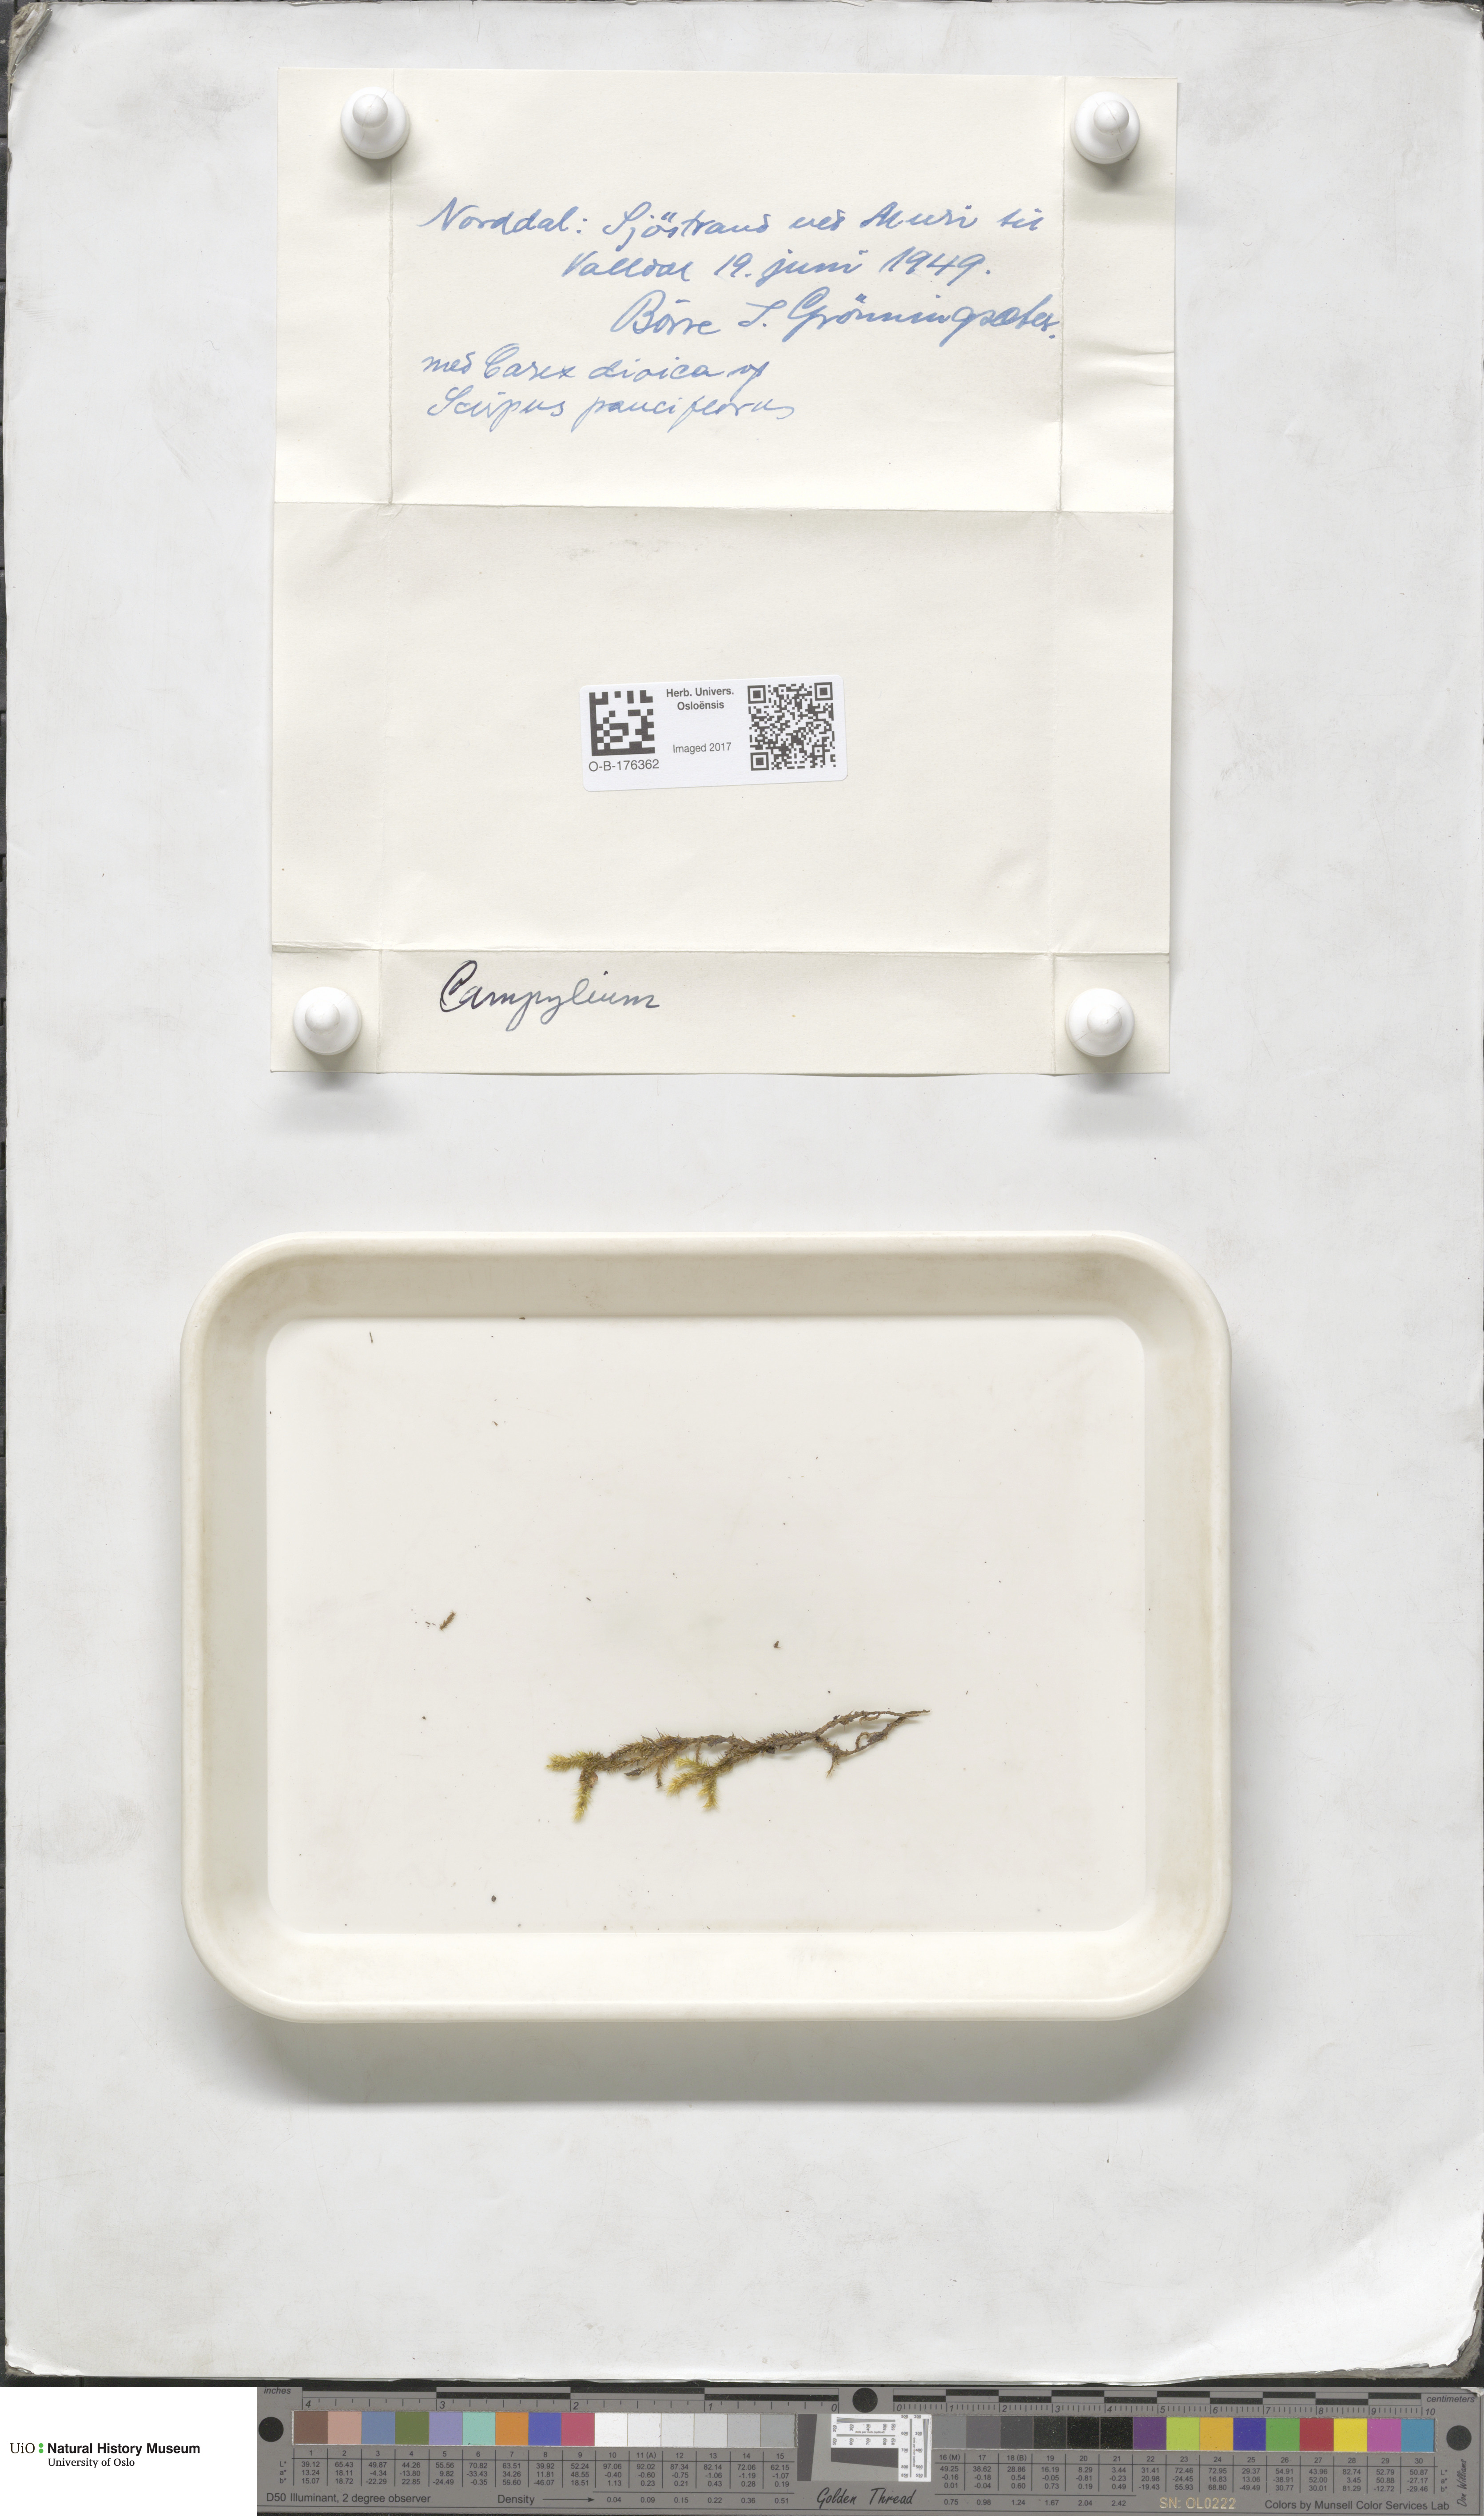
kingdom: Plantae
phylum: Bryophyta
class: Bryopsida
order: Hypnales
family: Amblystegiaceae
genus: Campylium
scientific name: Campylium
